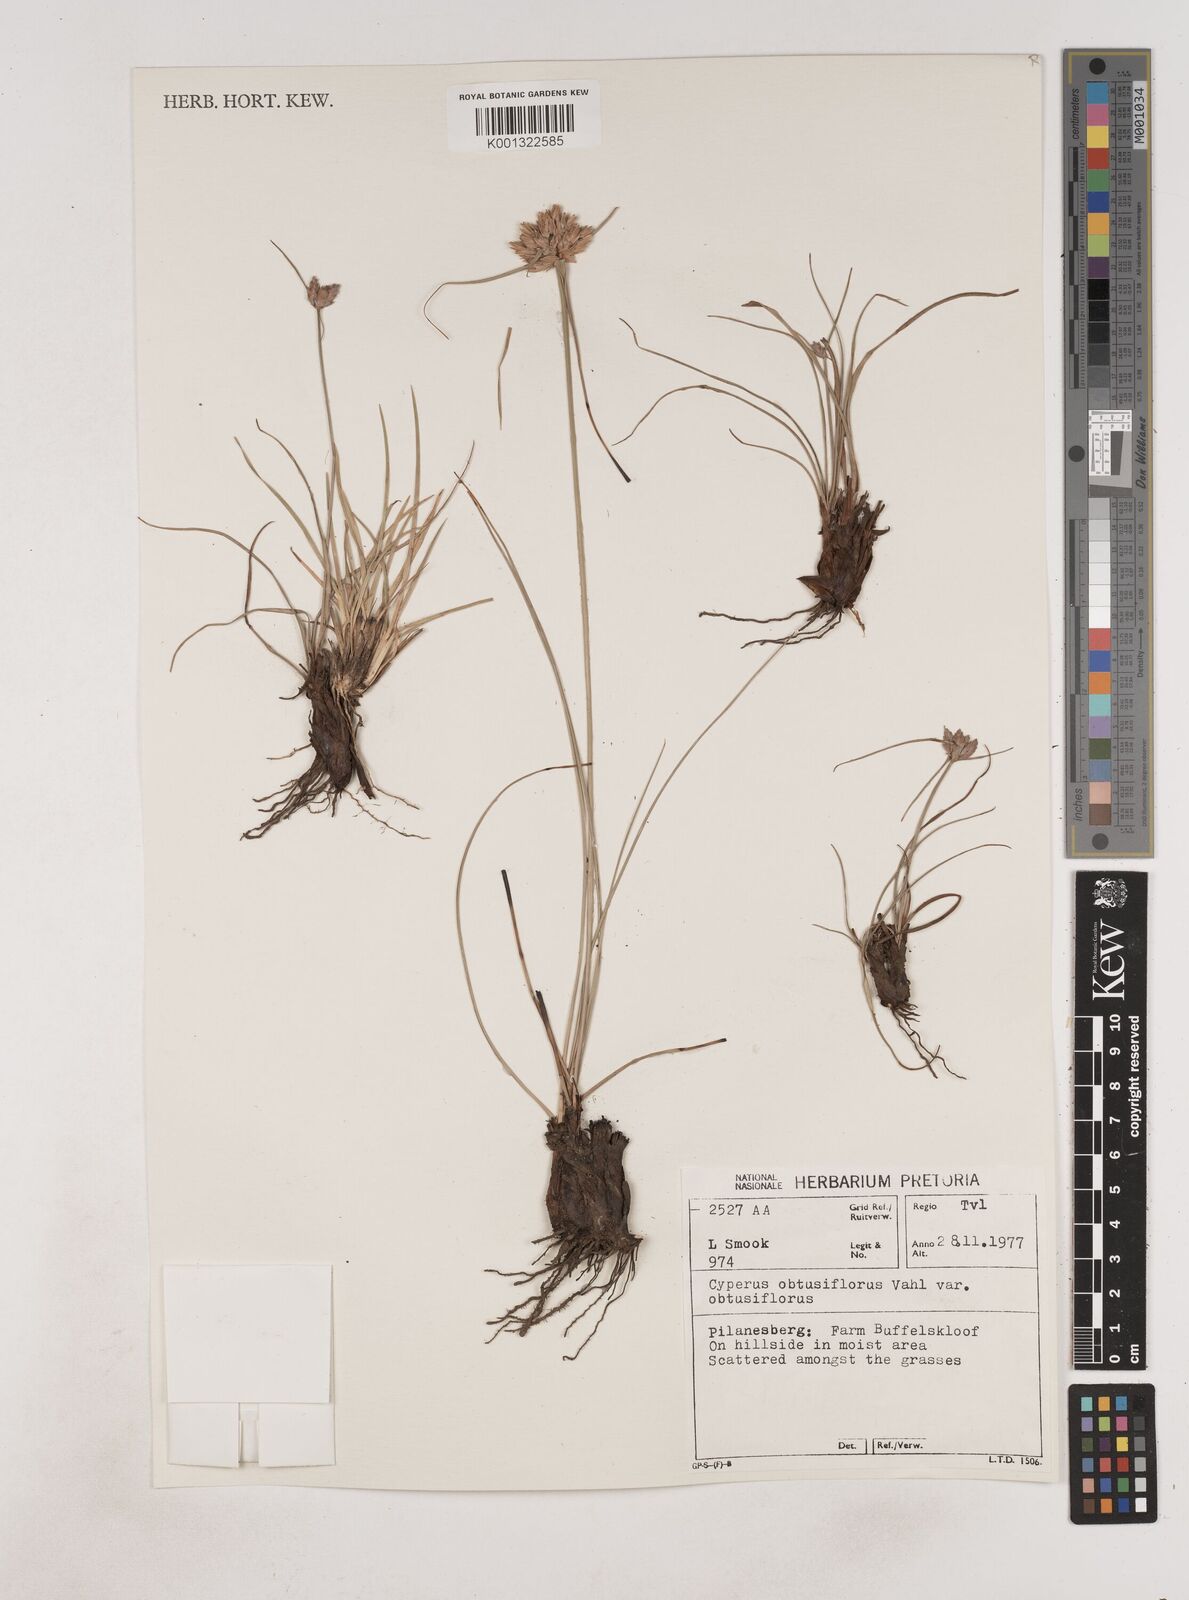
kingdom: Plantae
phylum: Tracheophyta
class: Liliopsida
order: Poales
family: Cyperaceae
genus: Cyperus
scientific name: Cyperus niveus
